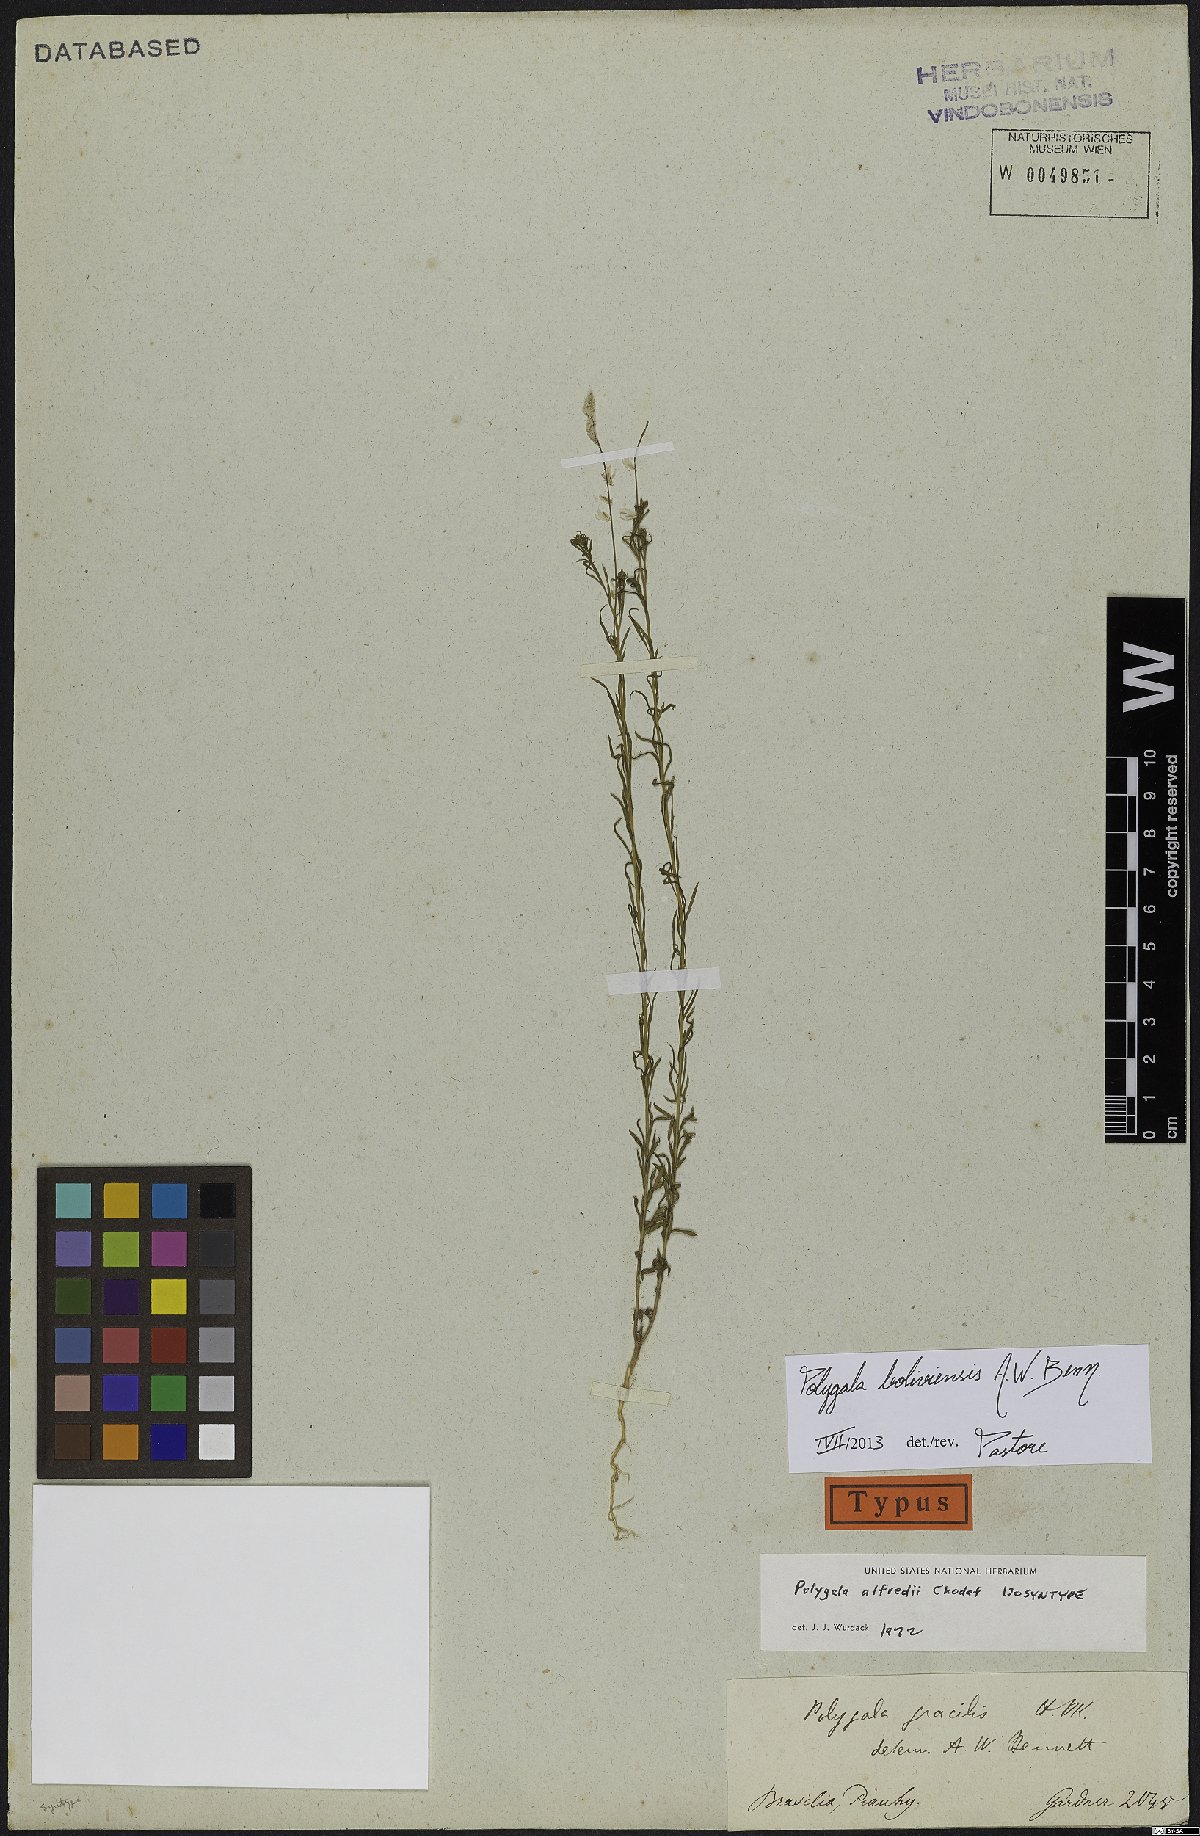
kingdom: Plantae
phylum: Tracheophyta
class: Magnoliopsida
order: Fabales
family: Polygalaceae
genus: Polygala
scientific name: Polygala boliviensis
